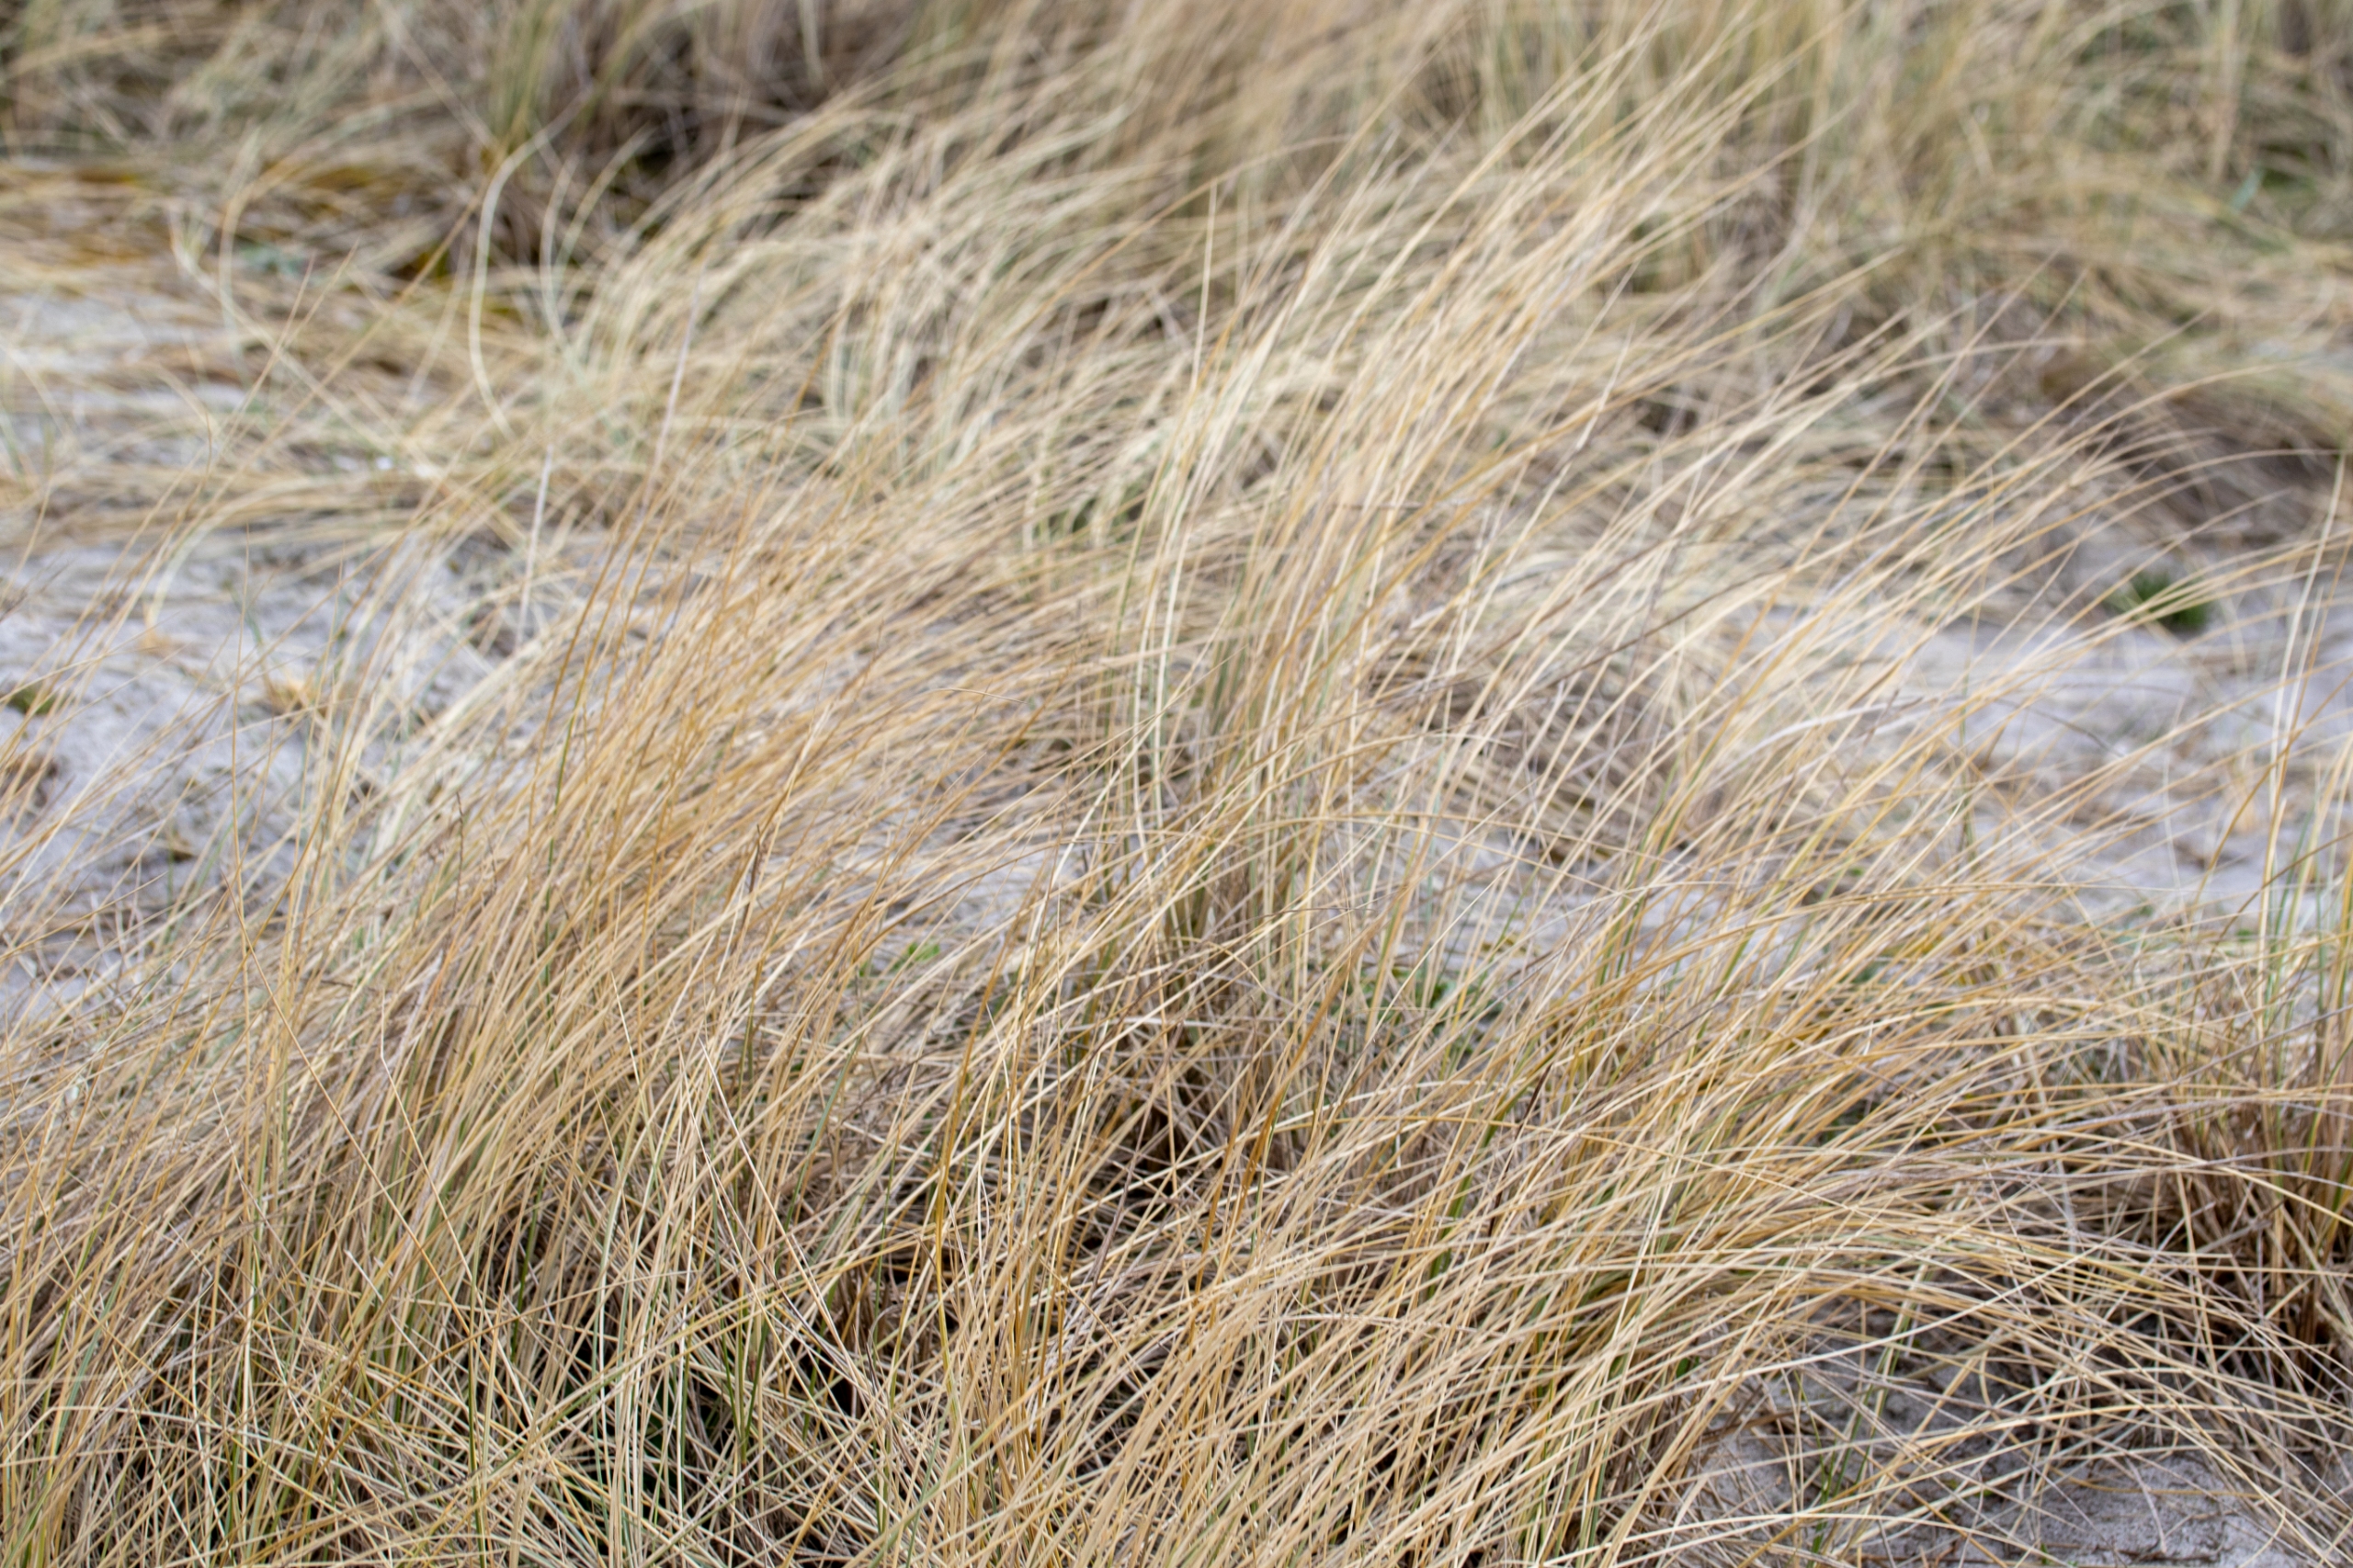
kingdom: Plantae
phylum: Tracheophyta
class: Liliopsida
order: Poales
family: Poaceae
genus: Calamagrostis
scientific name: Calamagrostis arenaria
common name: Sand-hjælme
